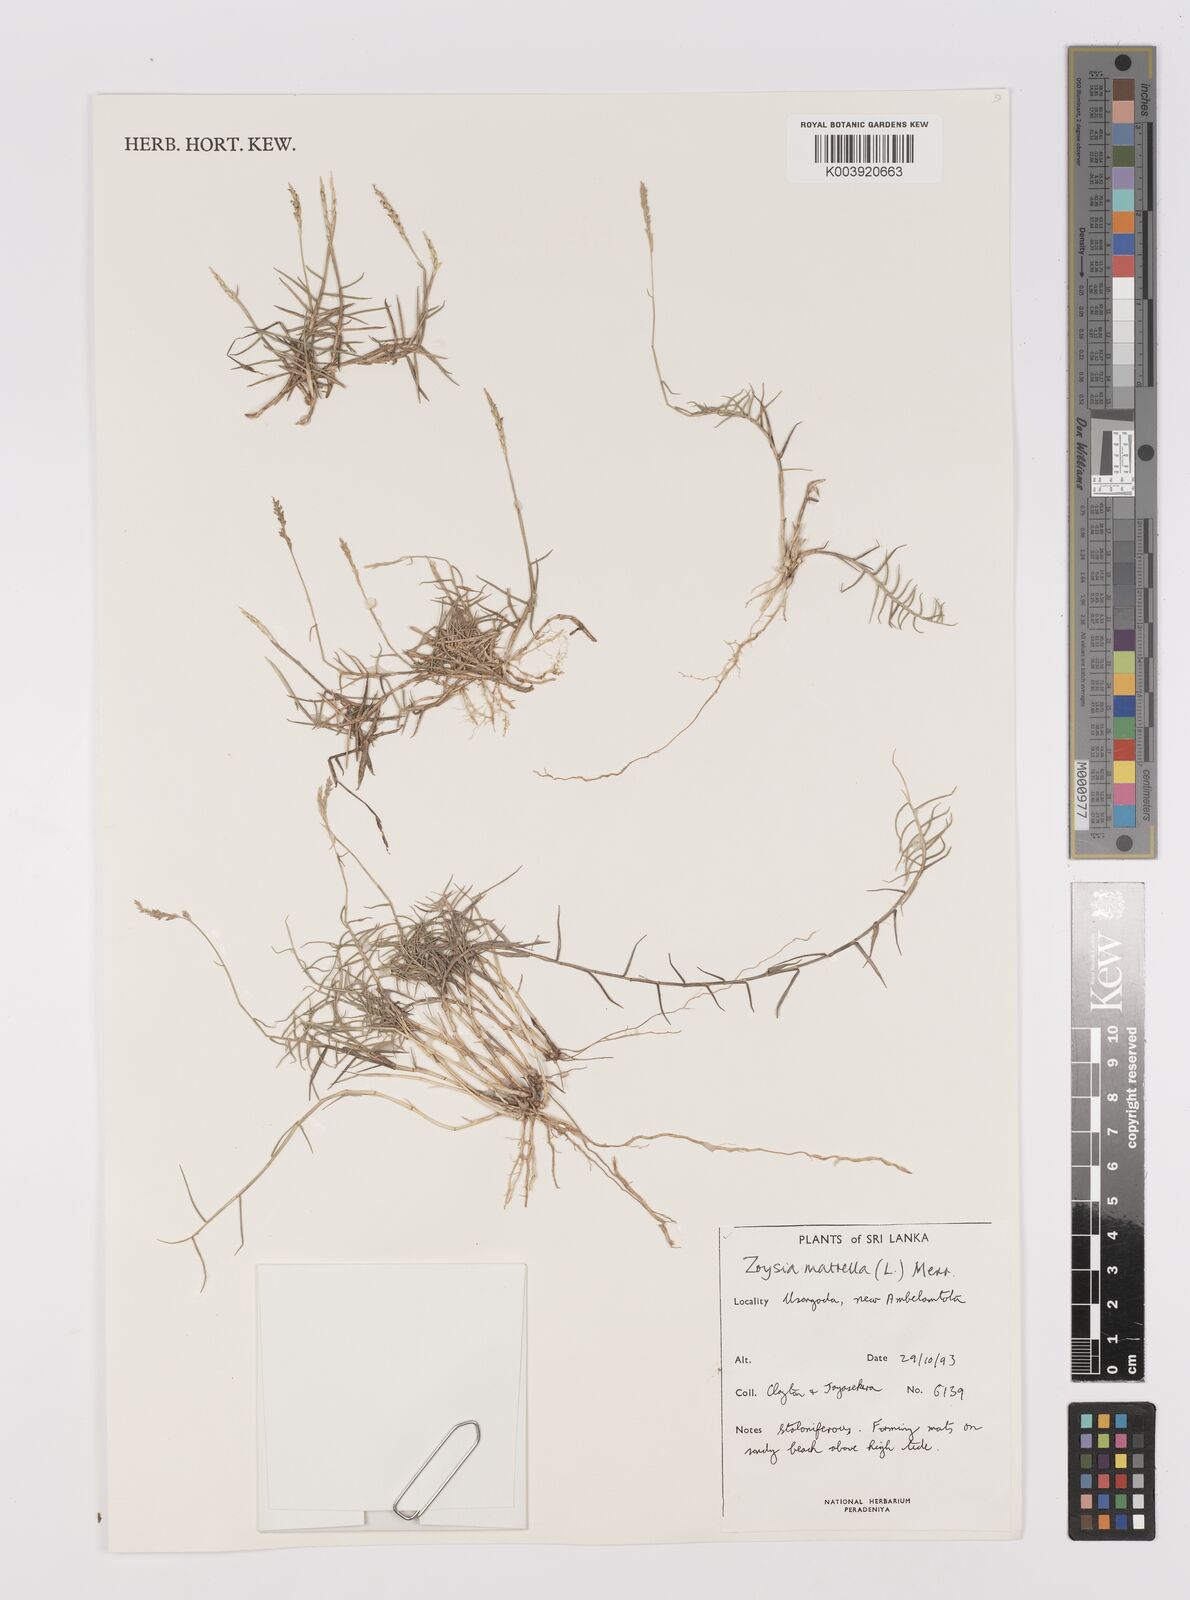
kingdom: Plantae
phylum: Tracheophyta
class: Liliopsida
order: Poales
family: Poaceae
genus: Zoysia
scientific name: Zoysia matrella
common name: Manila grass
